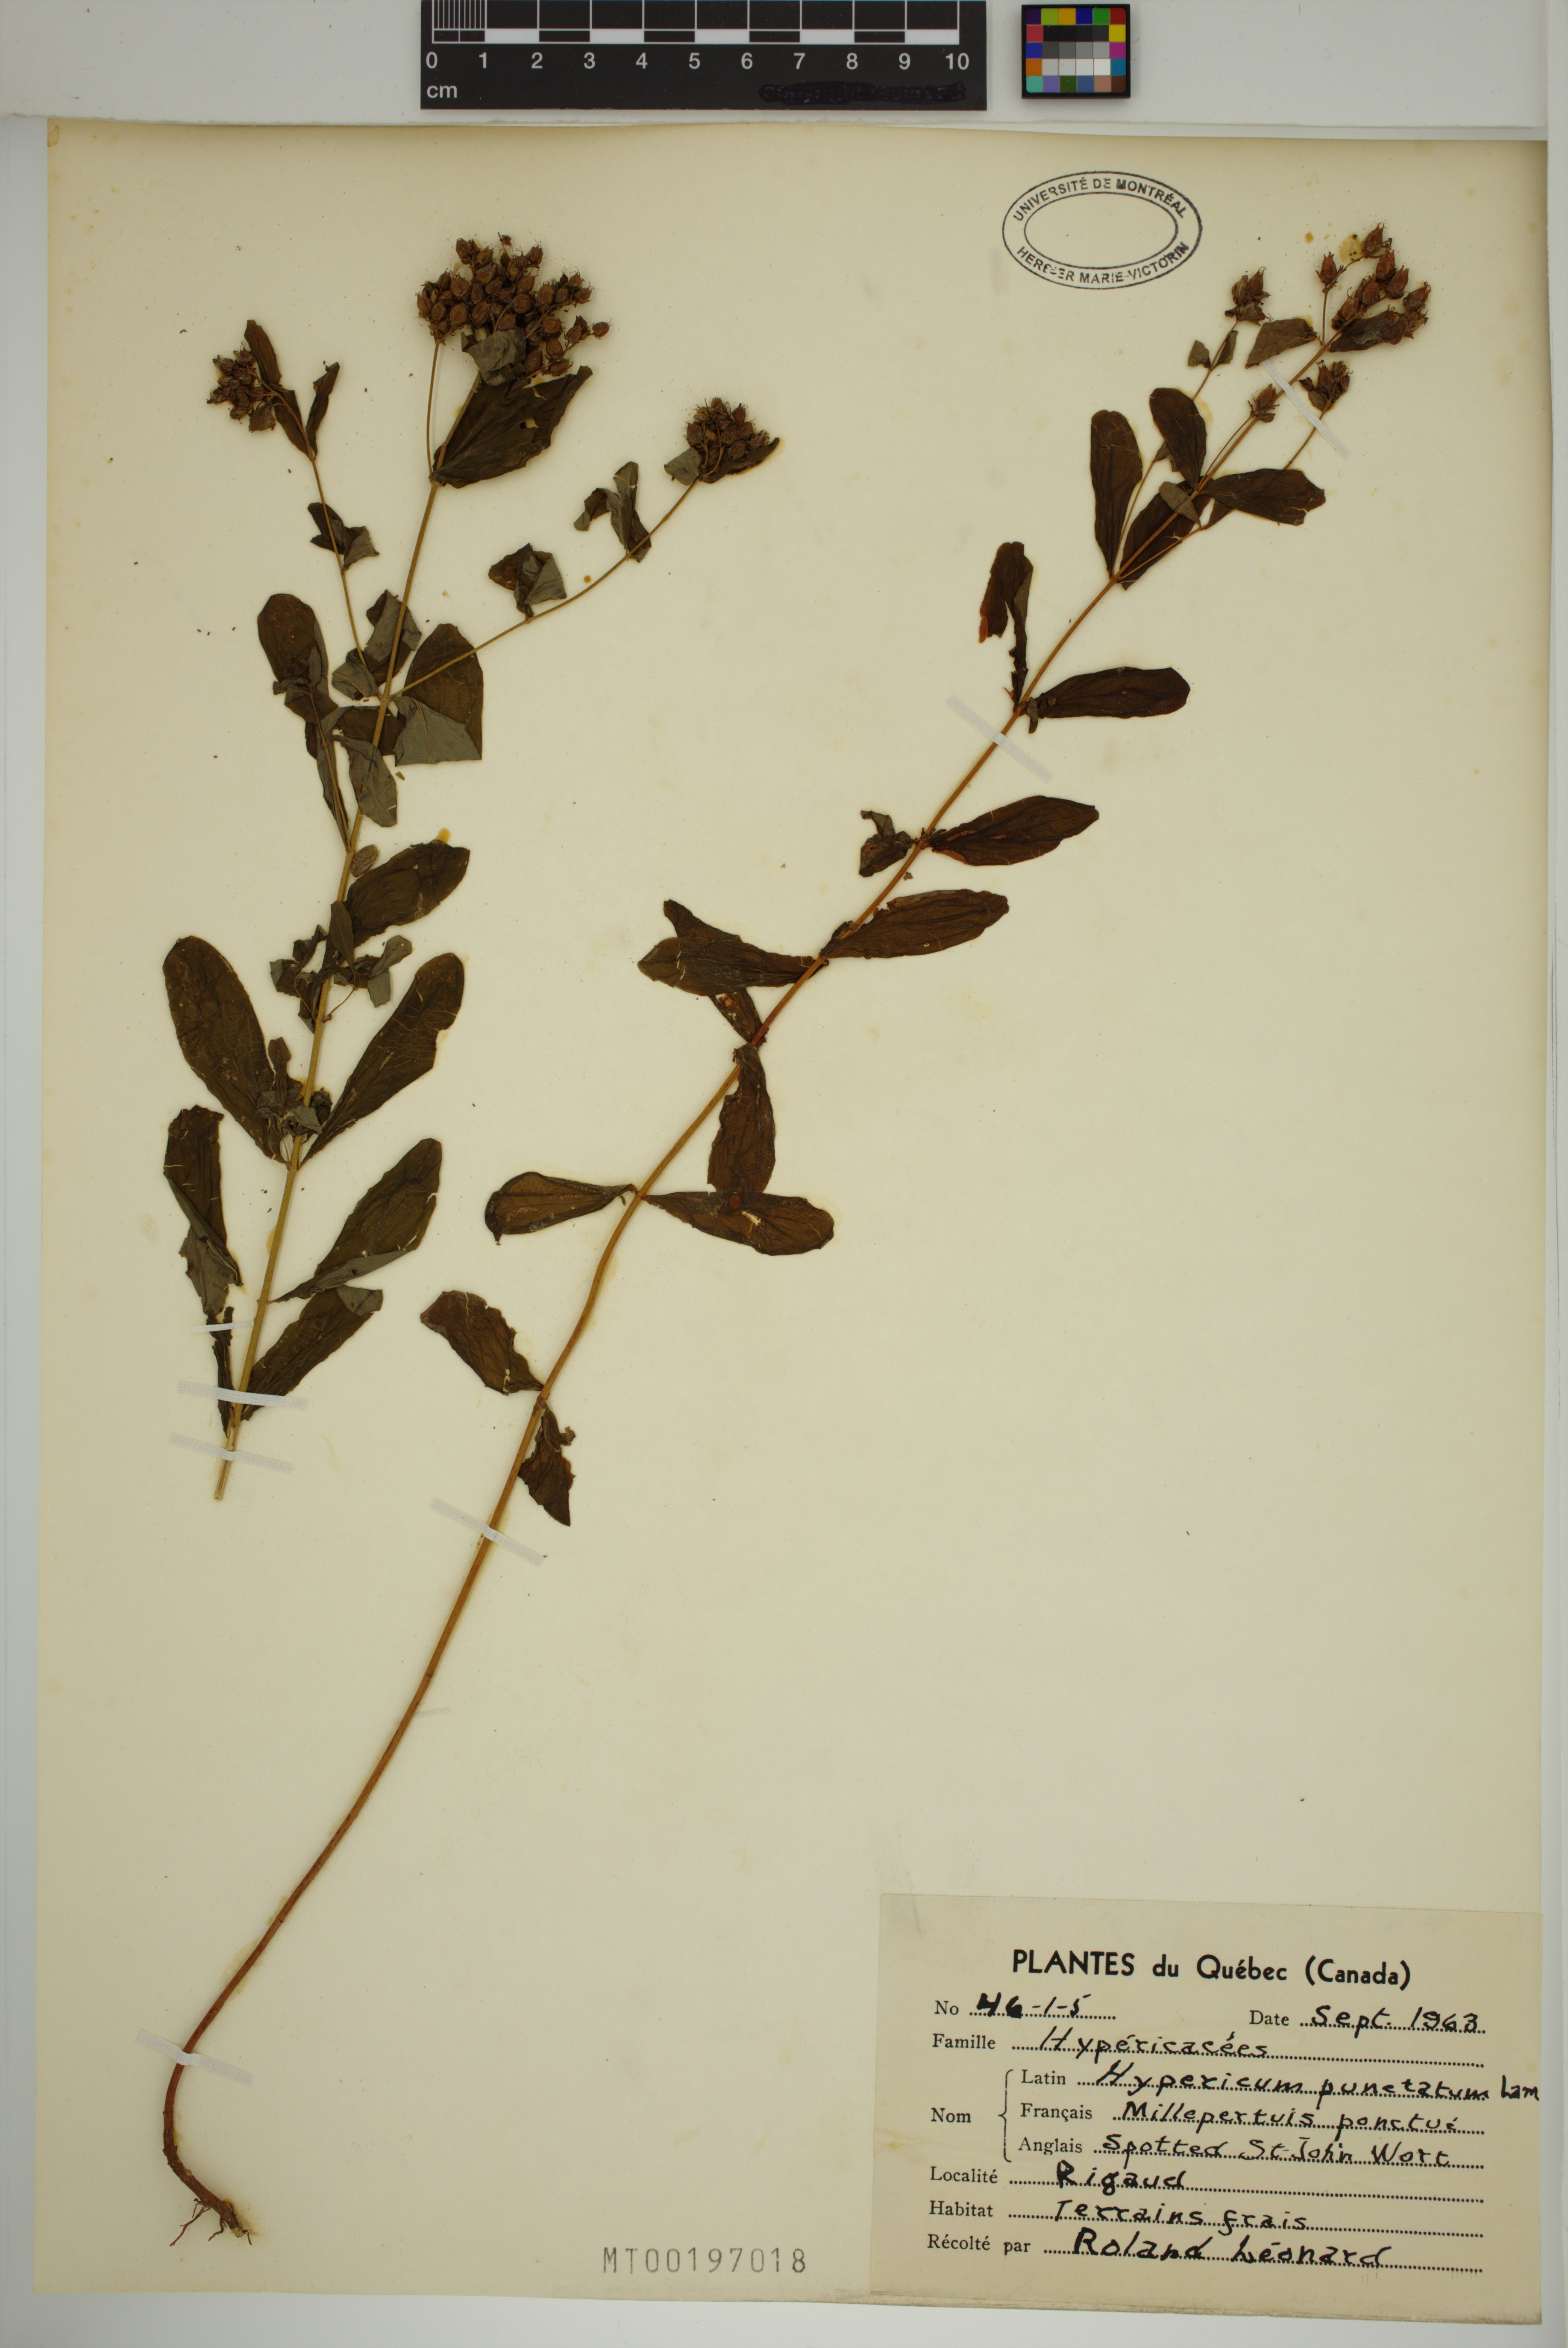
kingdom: Plantae
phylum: Tracheophyta
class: Magnoliopsida
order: Malpighiales
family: Hypericaceae
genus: Hypericum
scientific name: Hypericum punctatum
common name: Spotted st. john's-wort
